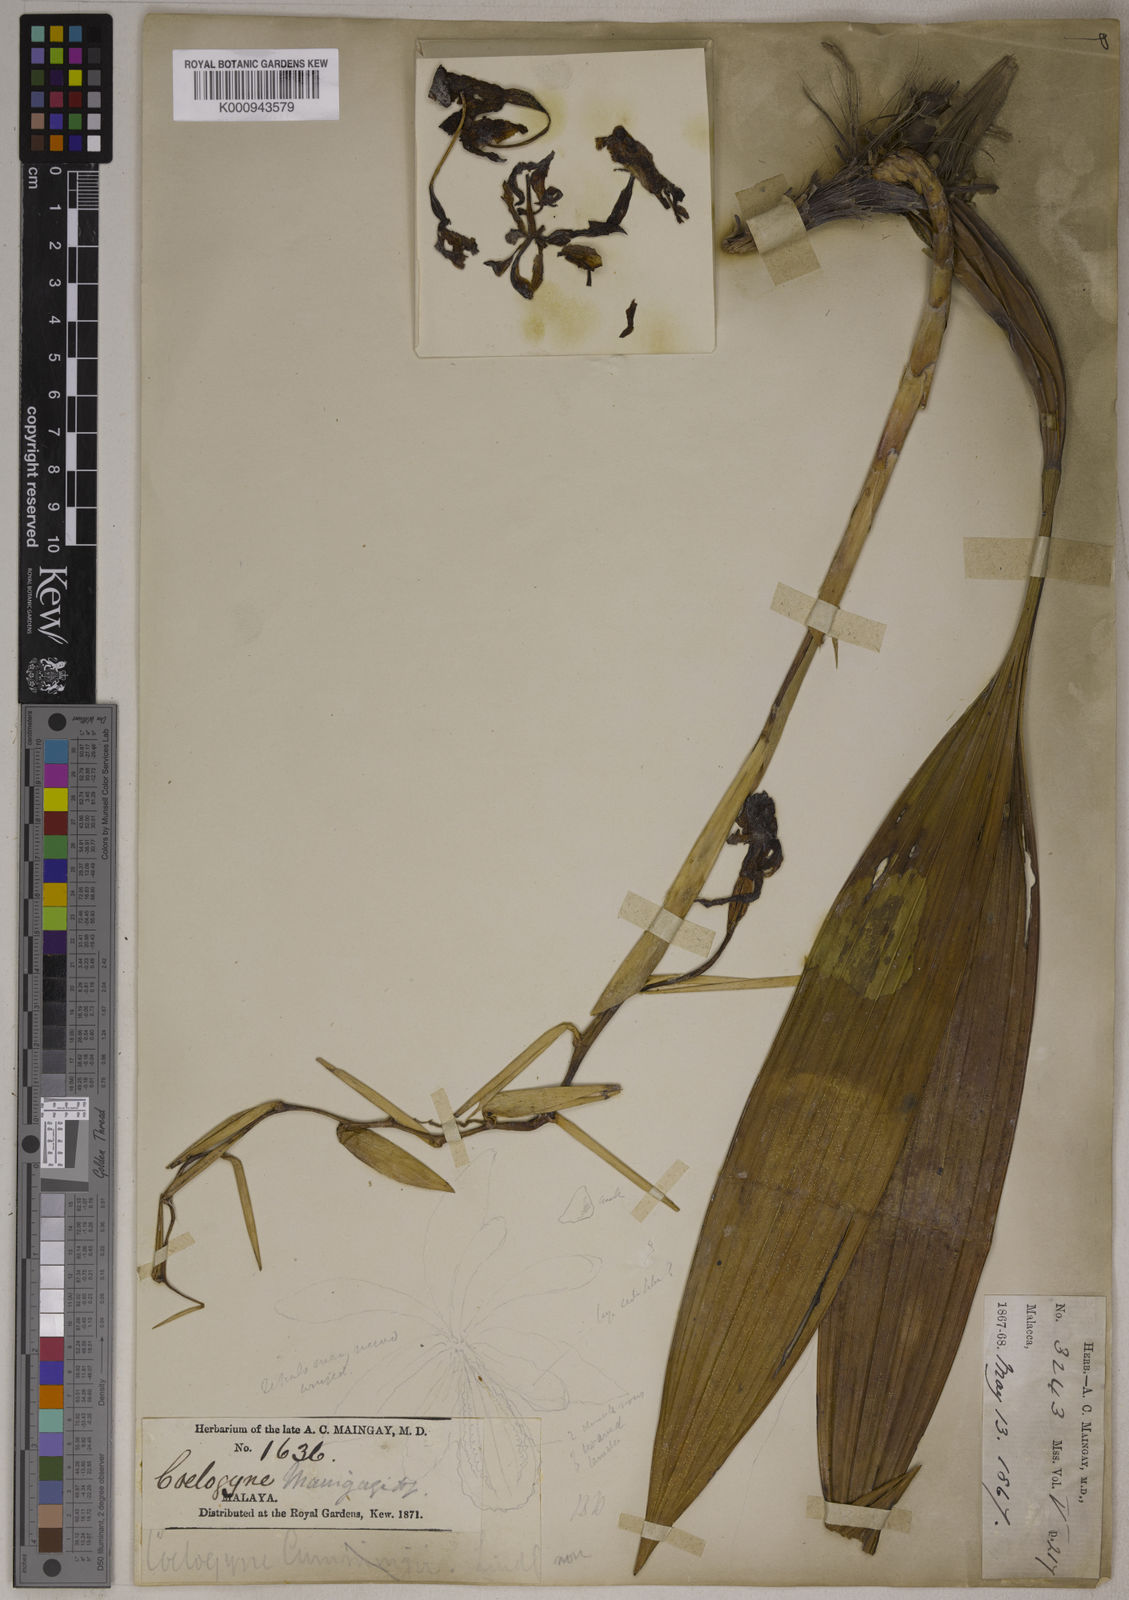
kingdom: Plantae
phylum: Tracheophyta
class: Liliopsida
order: Asparagales
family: Orchidaceae
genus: Coelogyne
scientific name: Coelogyne foerstermannii
